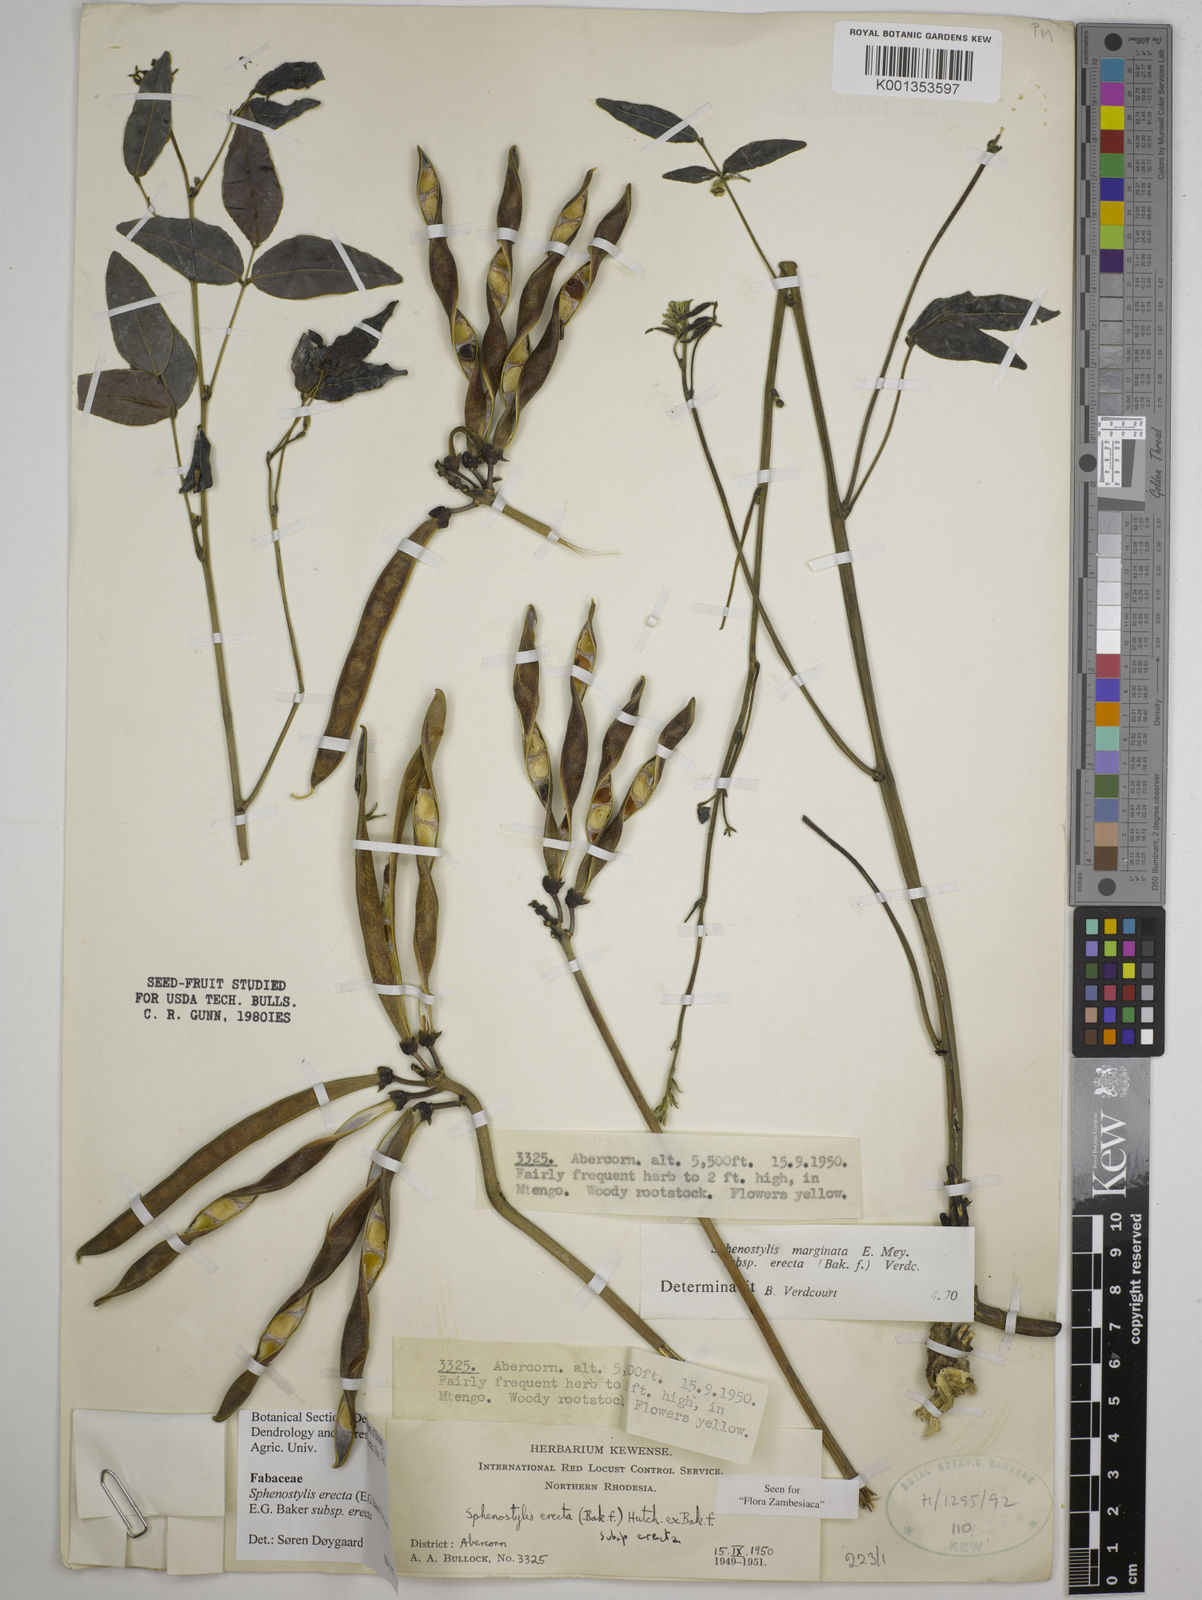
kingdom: Plantae
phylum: Tracheophyta
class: Magnoliopsida
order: Fabales
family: Fabaceae
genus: Sphenostylis
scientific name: Sphenostylis erecta
